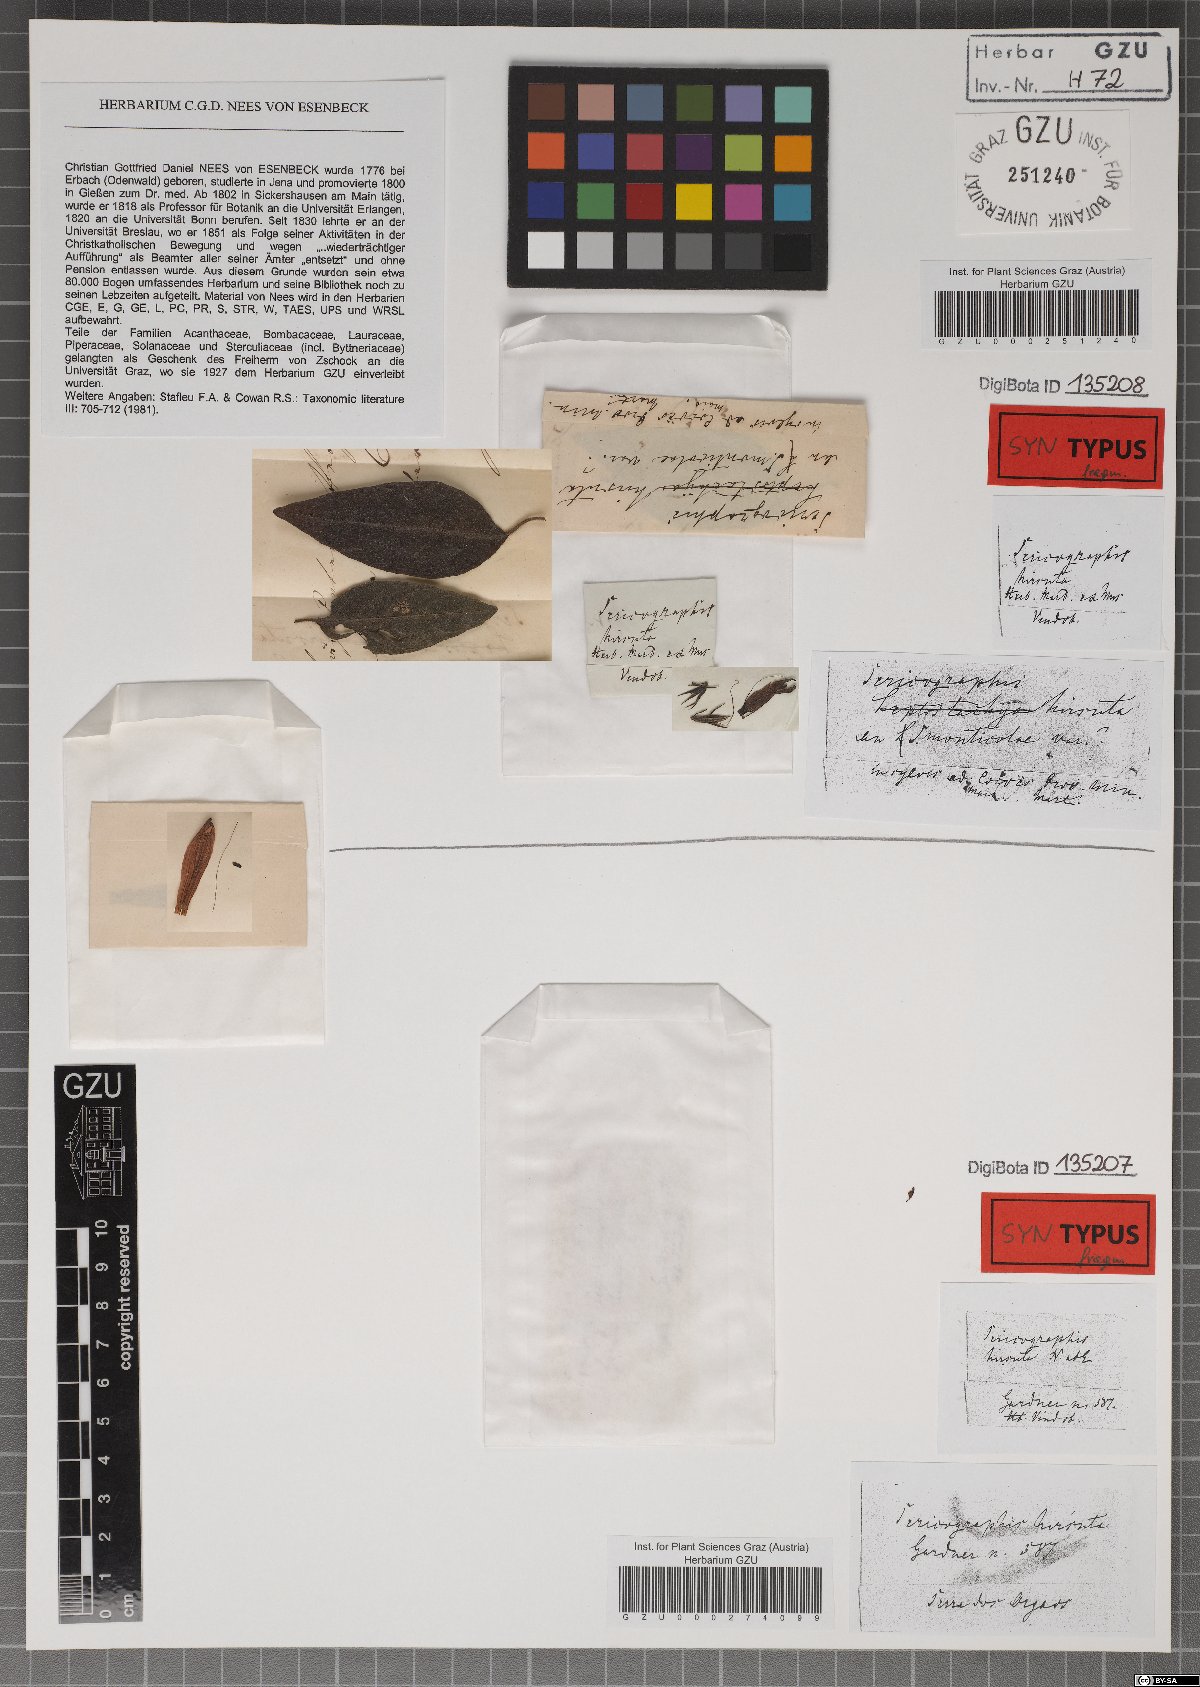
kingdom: Plantae
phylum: Tracheophyta
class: Magnoliopsida
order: Lamiales
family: Acanthaceae
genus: Justicia
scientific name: Justicia monticola
